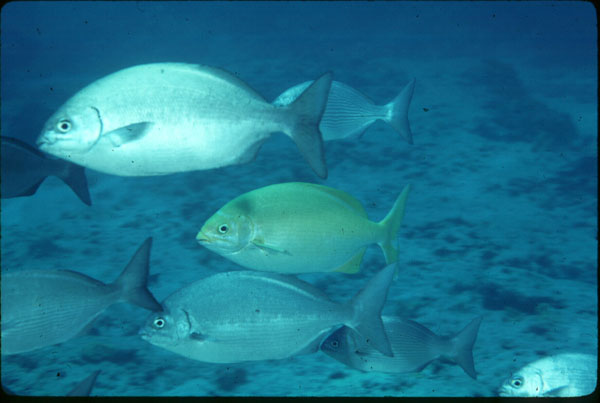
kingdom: Animalia
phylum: Chordata
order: Perciformes
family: Kyphosidae
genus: Kyphosus
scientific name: Kyphosus
